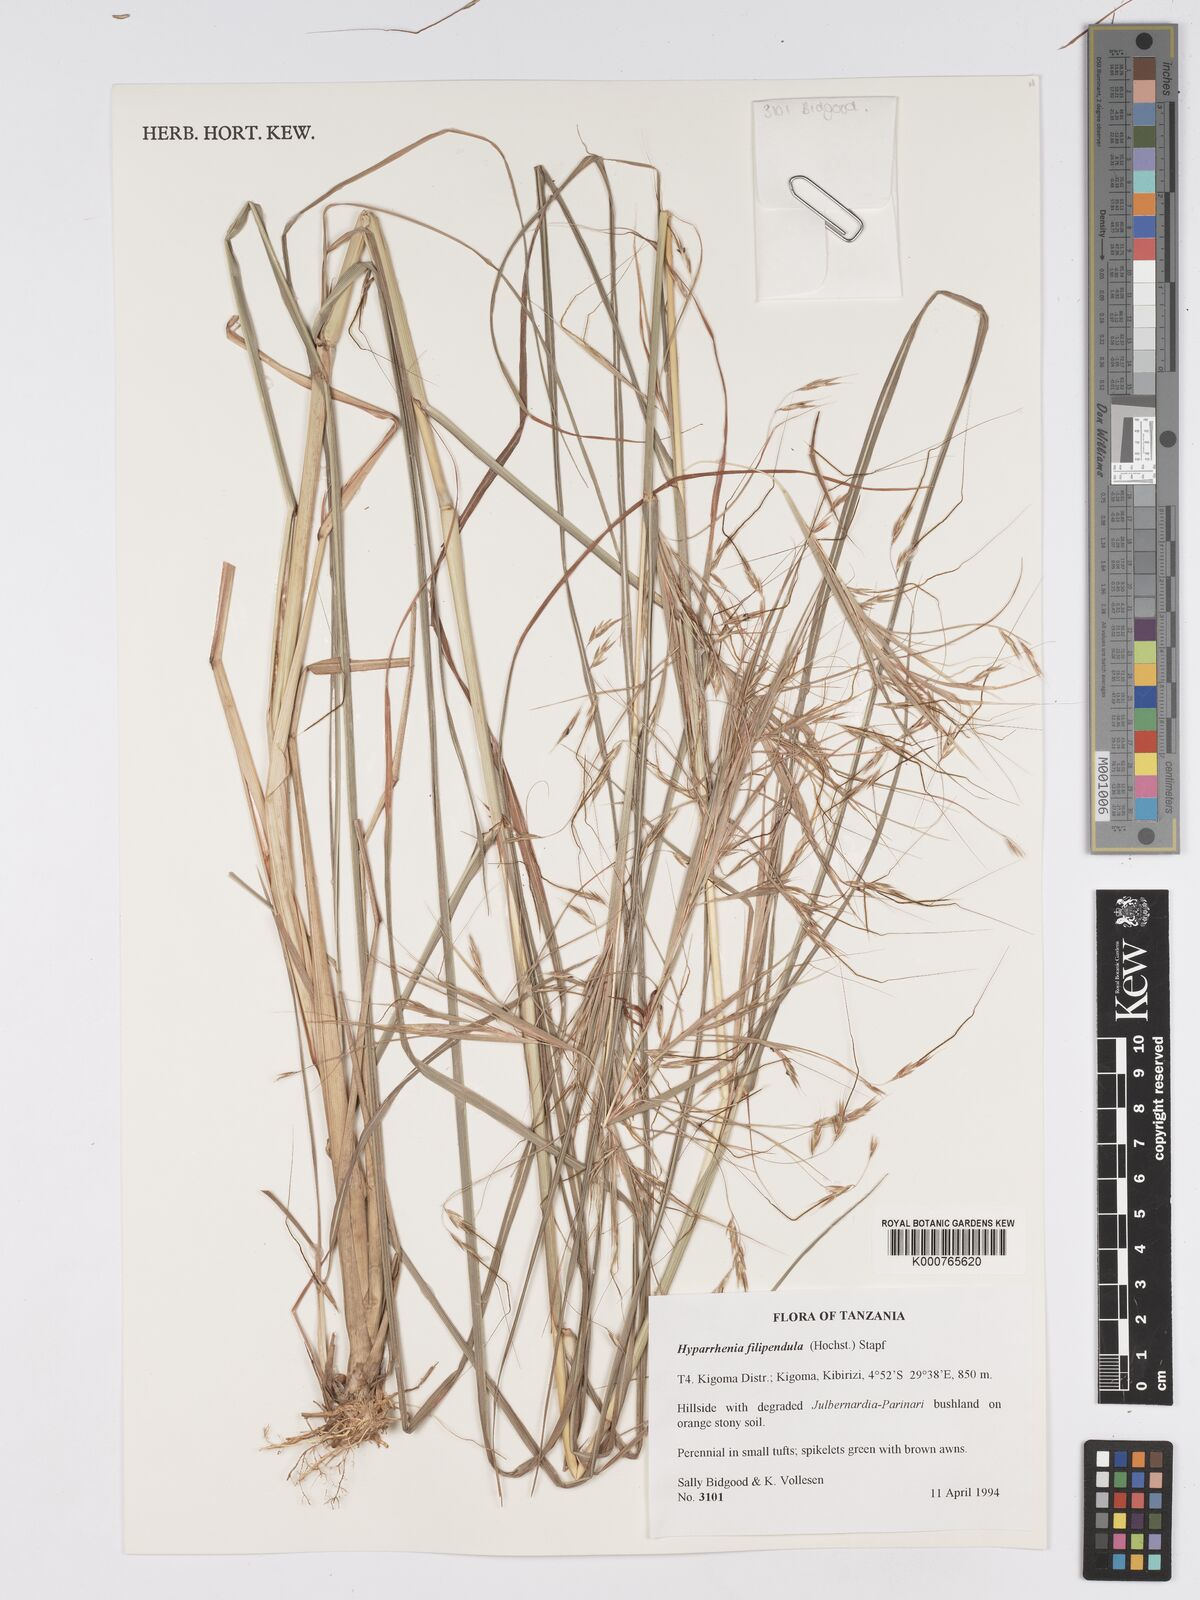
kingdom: Plantae
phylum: Tracheophyta
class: Liliopsida
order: Poales
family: Poaceae
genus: Hyparrhenia
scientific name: Hyparrhenia filipendula
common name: Tambookie grass
